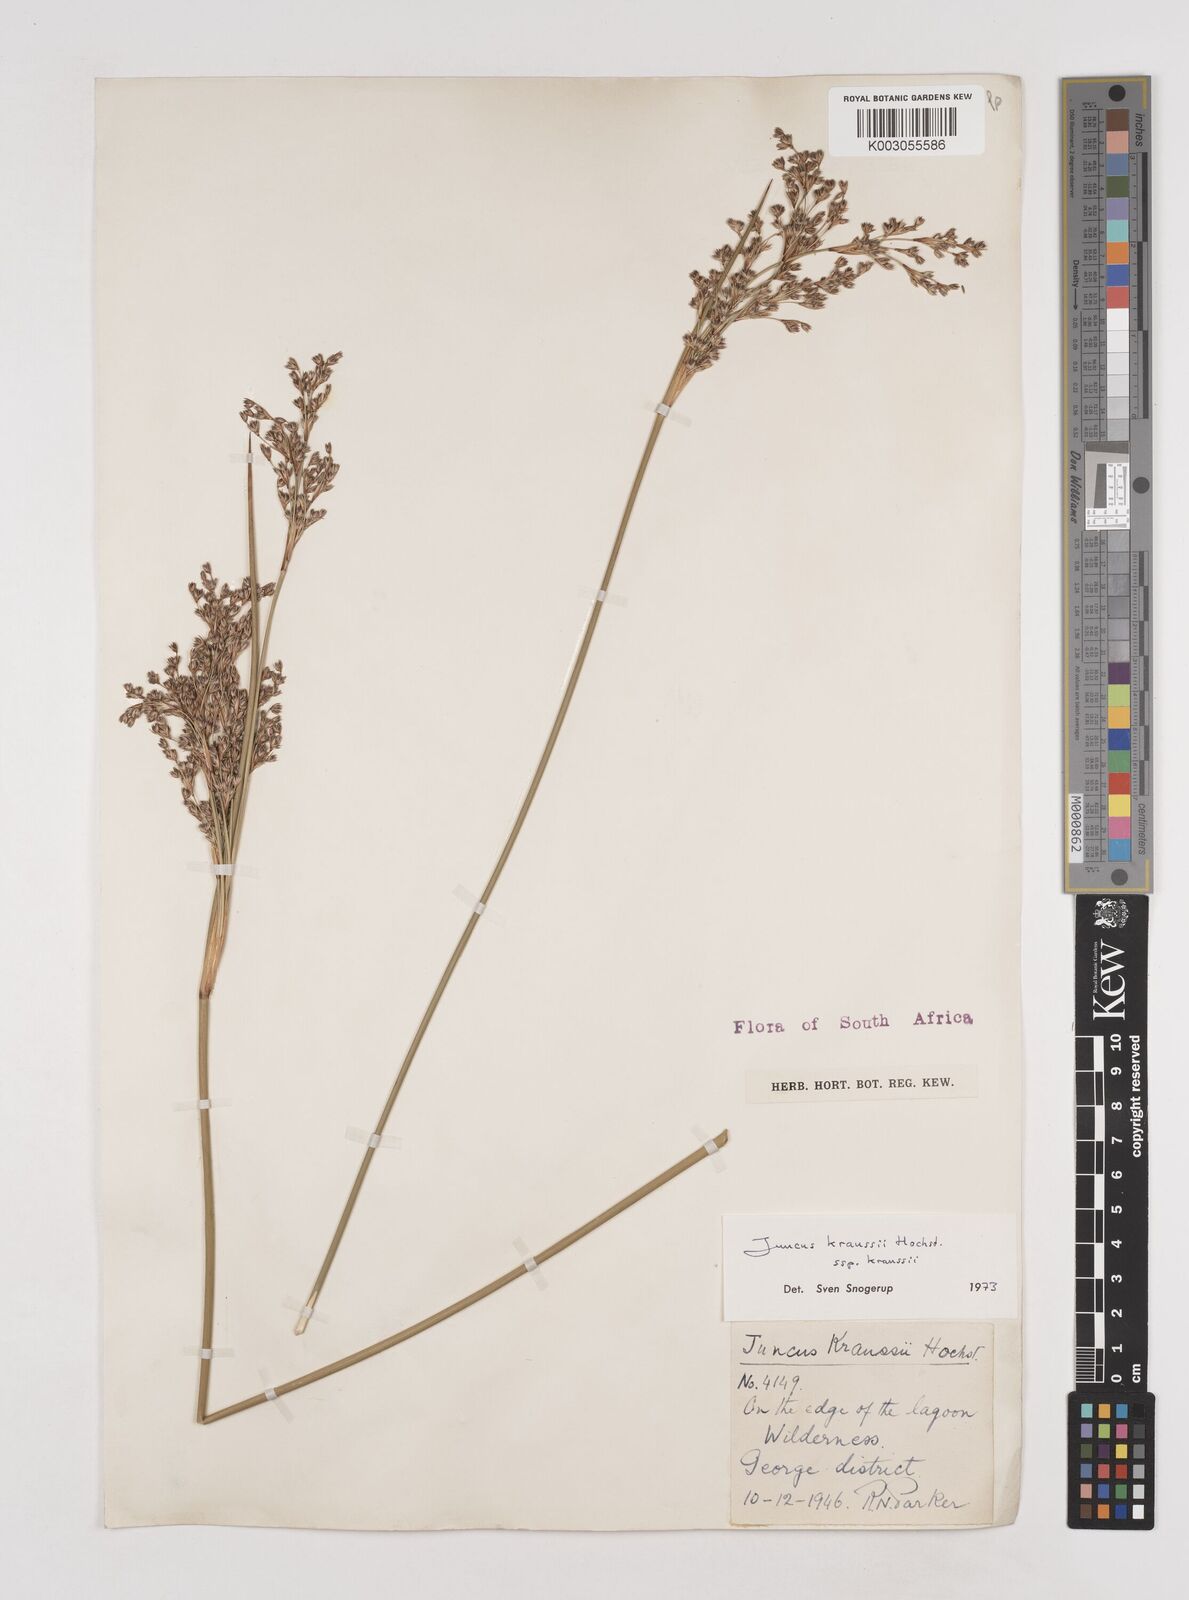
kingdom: Plantae
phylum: Tracheophyta
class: Liliopsida
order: Poales
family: Juncaceae
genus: Juncus
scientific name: Juncus kraussii
